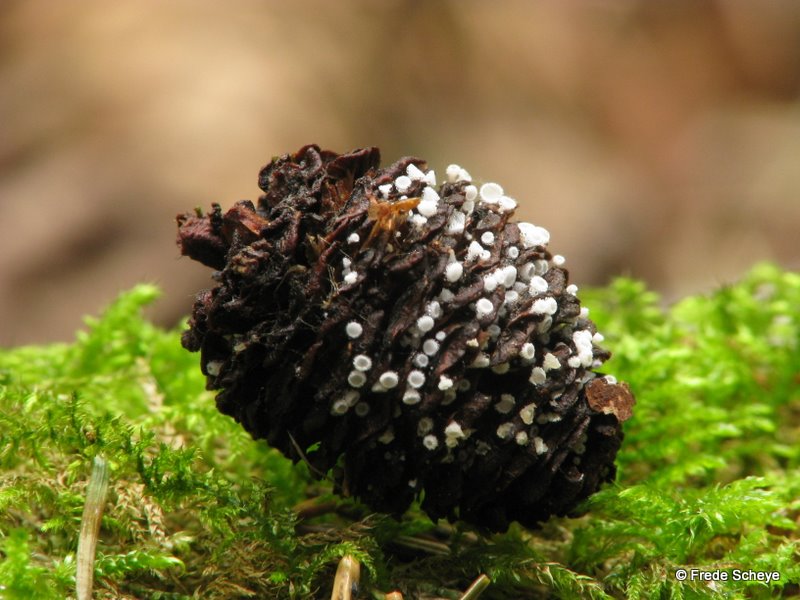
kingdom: Fungi
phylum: Ascomycota
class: Leotiomycetes
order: Helotiales
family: Lachnaceae
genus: Lachnum
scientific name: Lachnum virgineum
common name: jomfru-frynseskive
